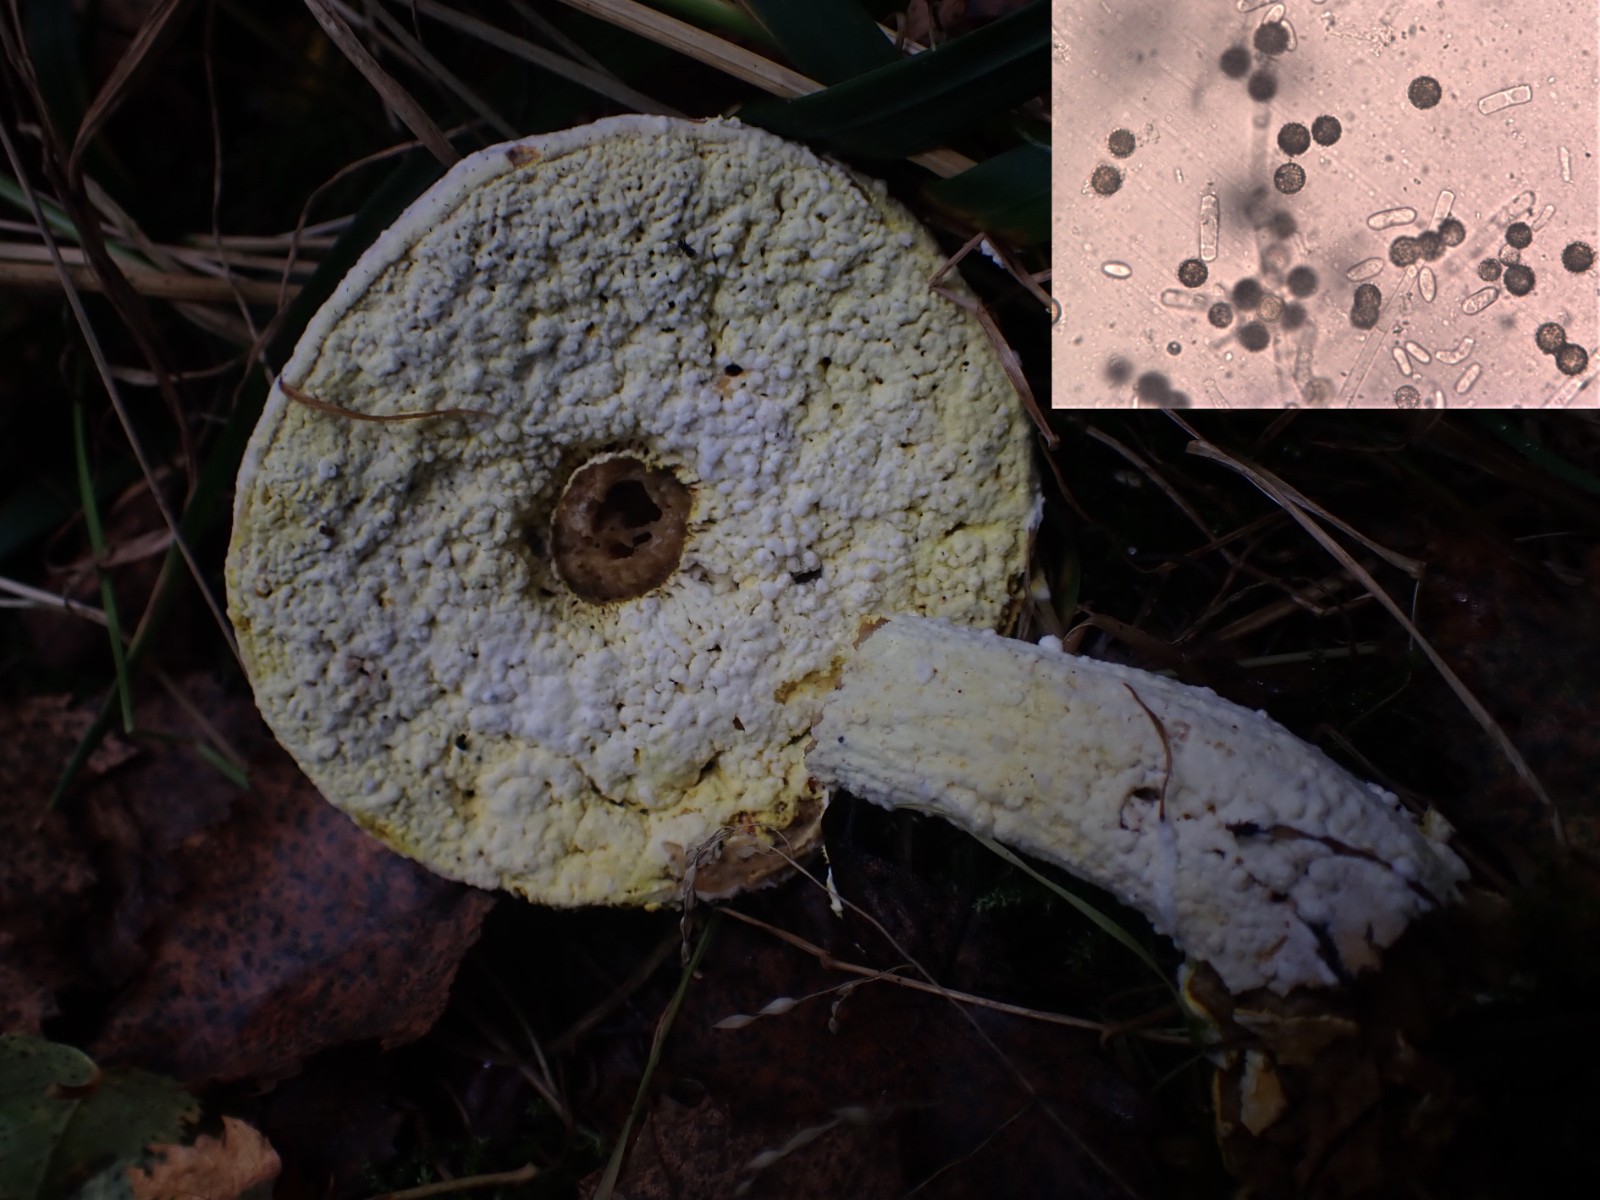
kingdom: Fungi
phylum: Ascomycota
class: Sordariomycetes
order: Hypocreales
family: Hypocreaceae
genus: Hypomyces
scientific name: Hypomyces
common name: snylteskorpe
